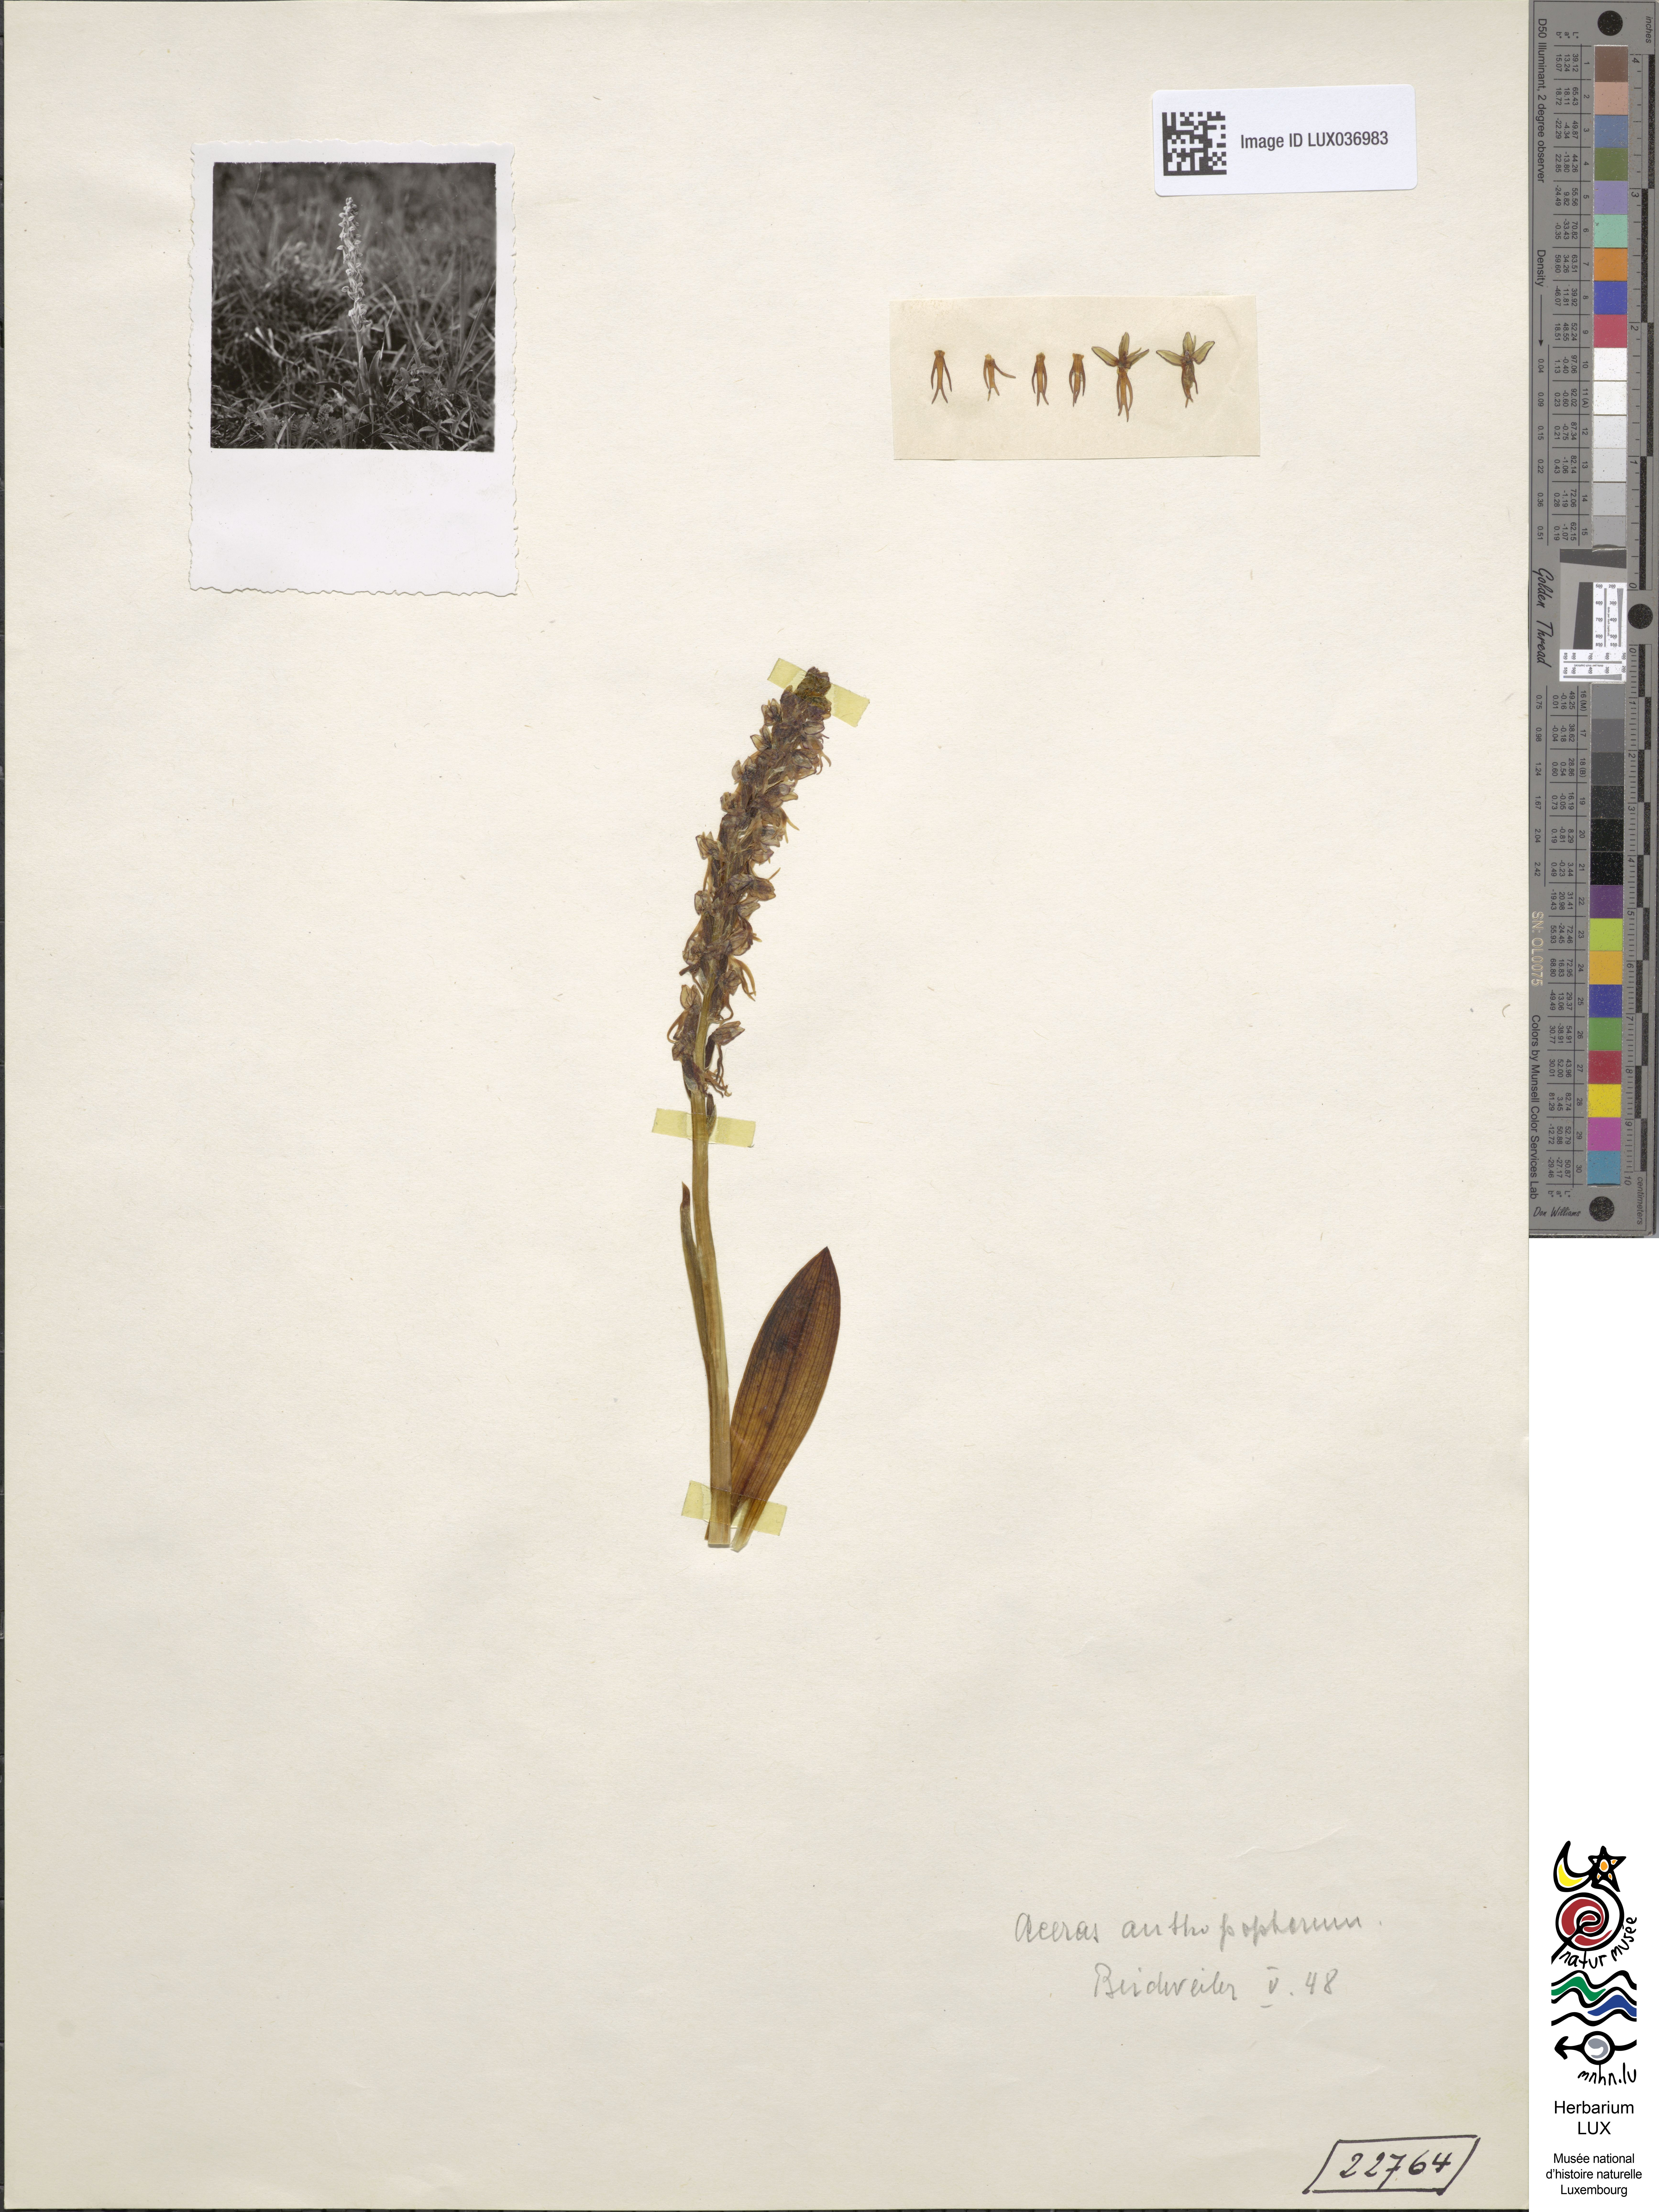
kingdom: Plantae
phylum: Tracheophyta
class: Liliopsida
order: Asparagales
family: Orchidaceae
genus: Orchis
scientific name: Orchis anthropophora
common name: Man orchid
